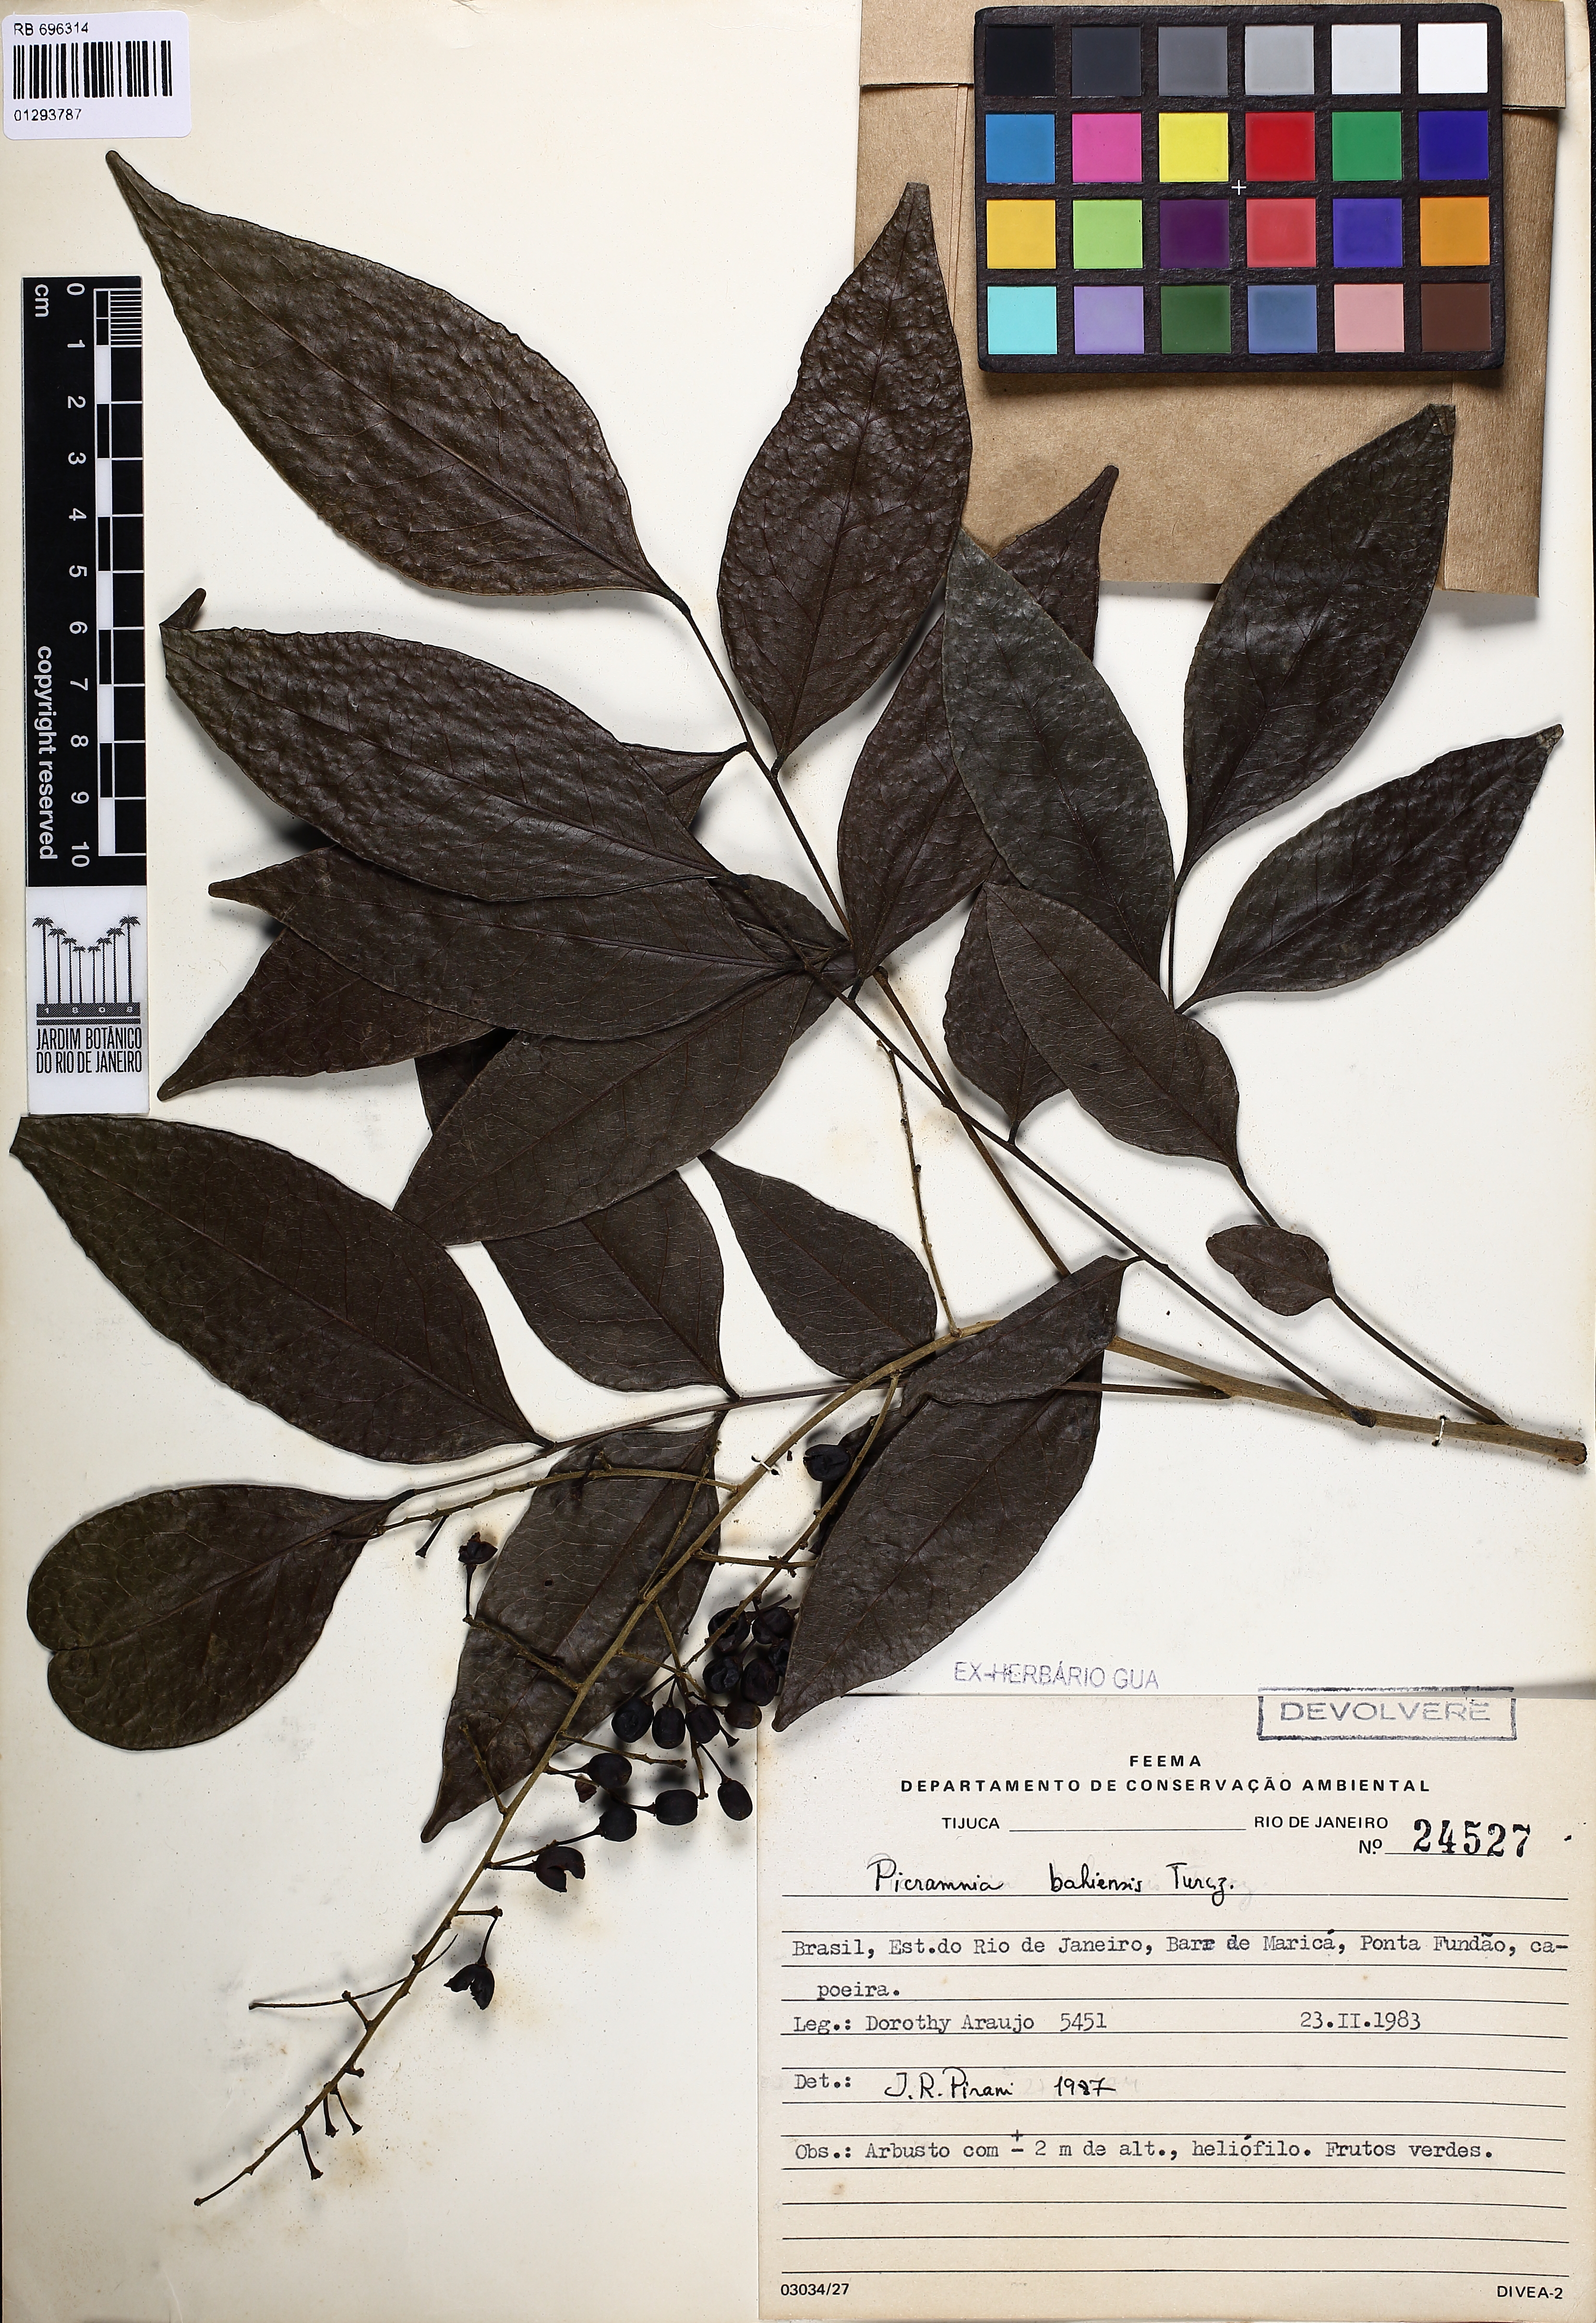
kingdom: Plantae
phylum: Tracheophyta
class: Magnoliopsida
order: Picramniales
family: Picramniaceae
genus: Picramnia
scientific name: Picramnia bahiensis
